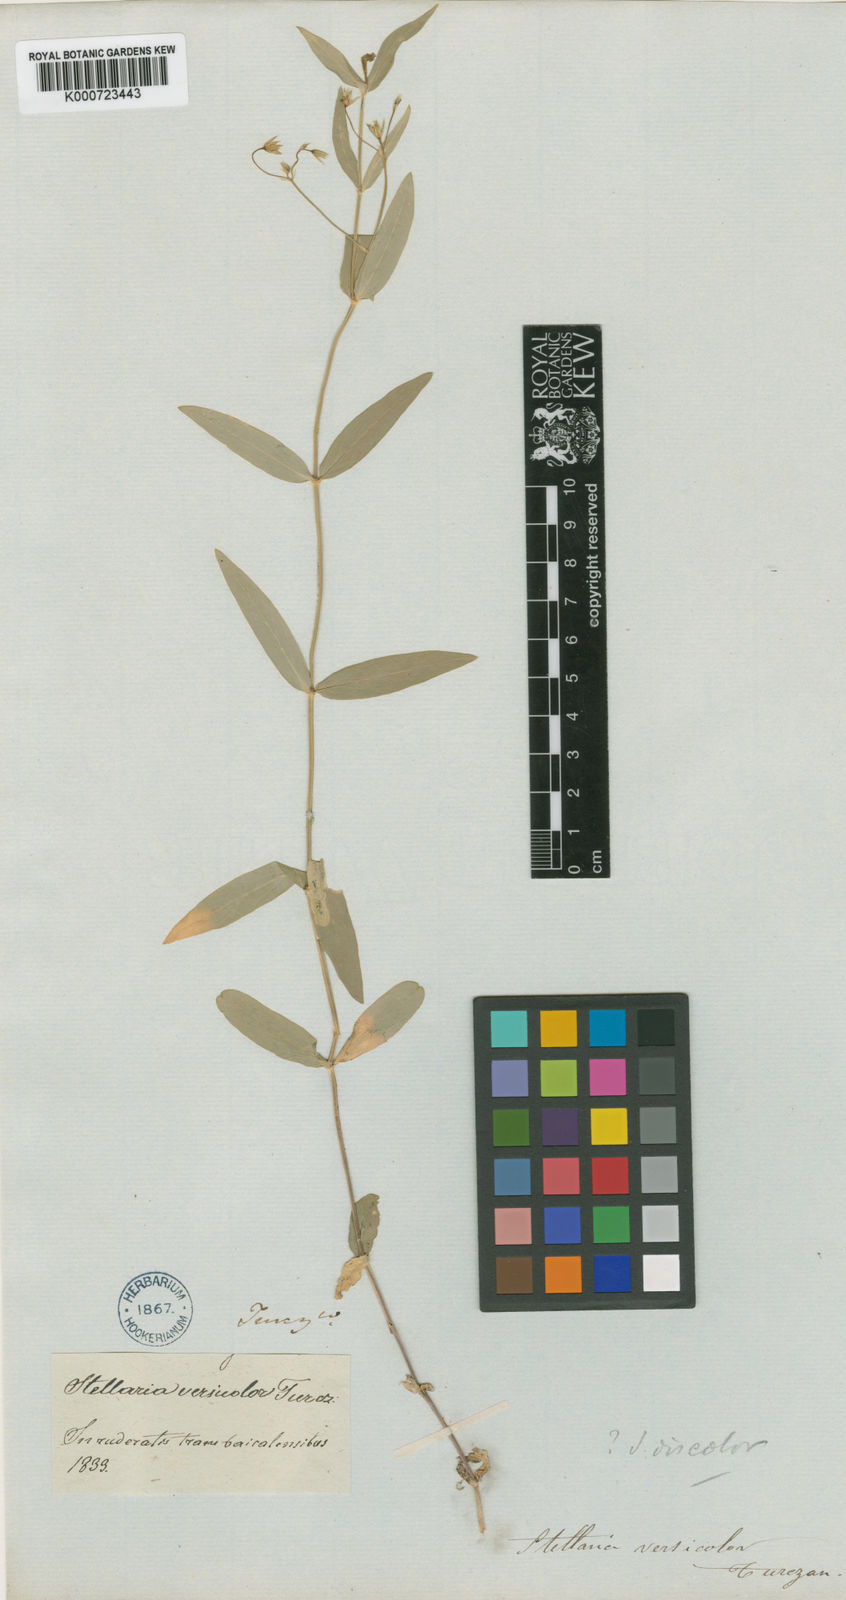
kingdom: Plantae
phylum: Tracheophyta
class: Magnoliopsida
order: Caryophyllales
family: Caryophyllaceae
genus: Stellaria
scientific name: Stellaria discolor
